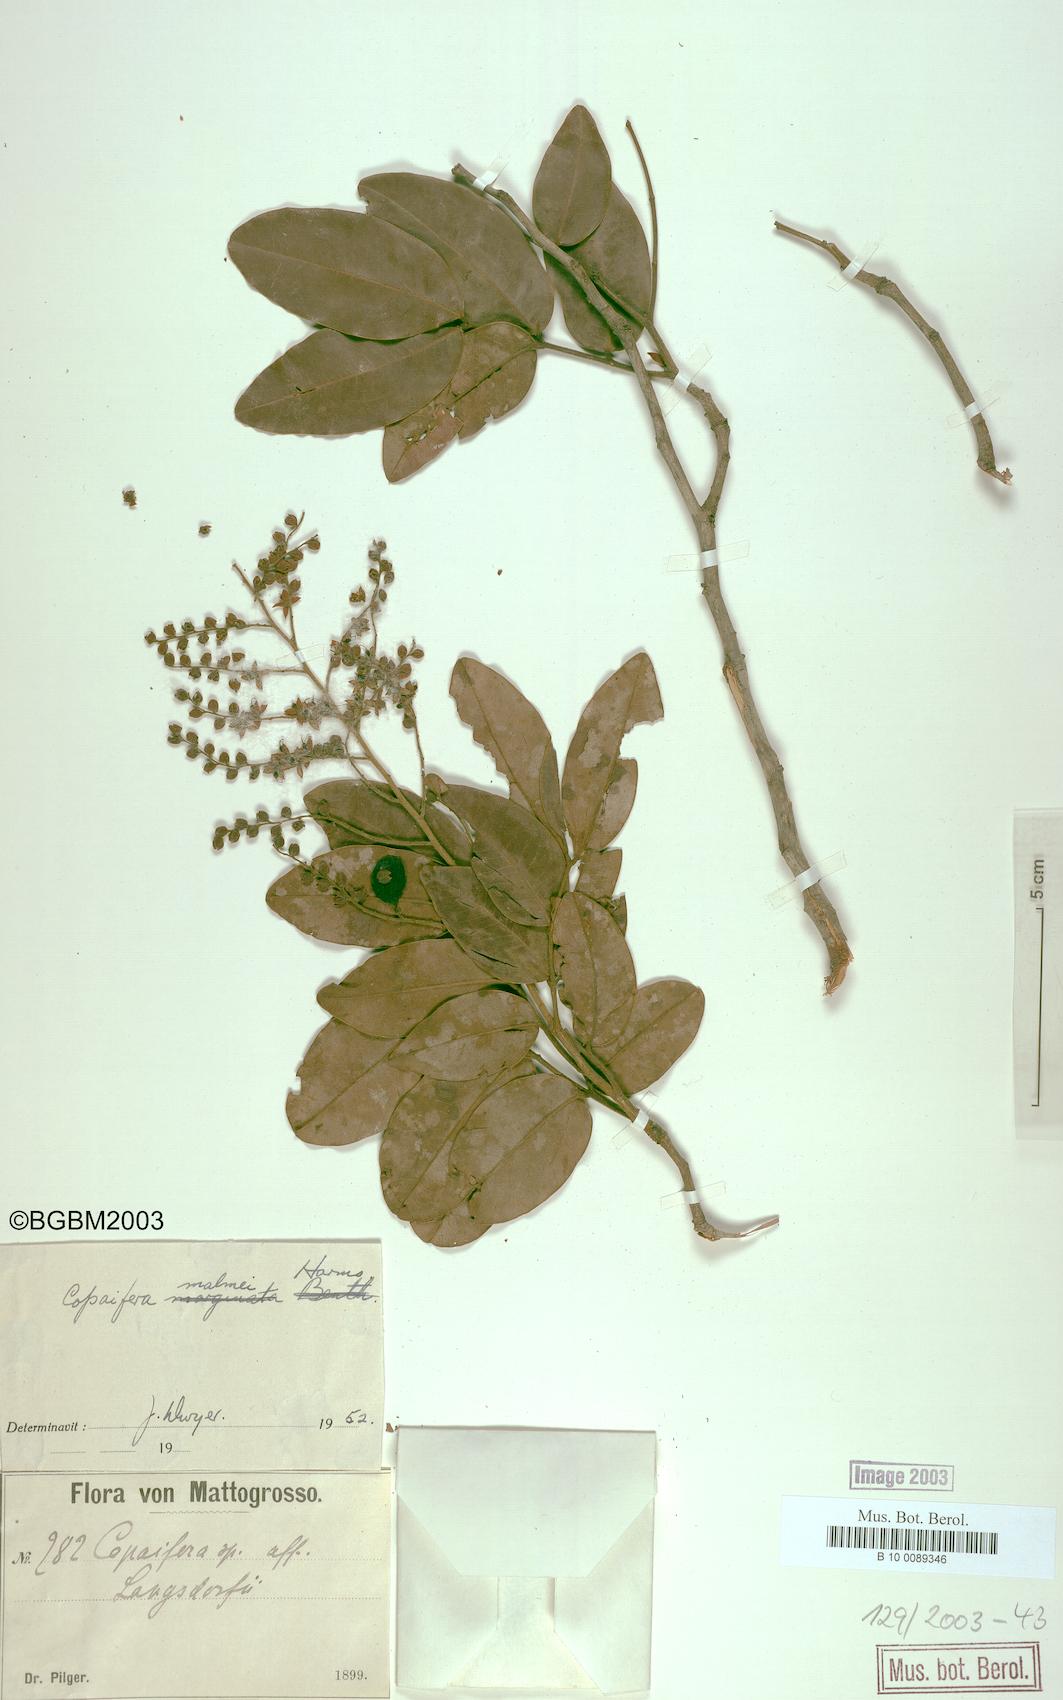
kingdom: Plantae
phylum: Tracheophyta
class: Magnoliopsida
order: Fabales
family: Fabaceae
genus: Copaifera
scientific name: Copaifera malmei
